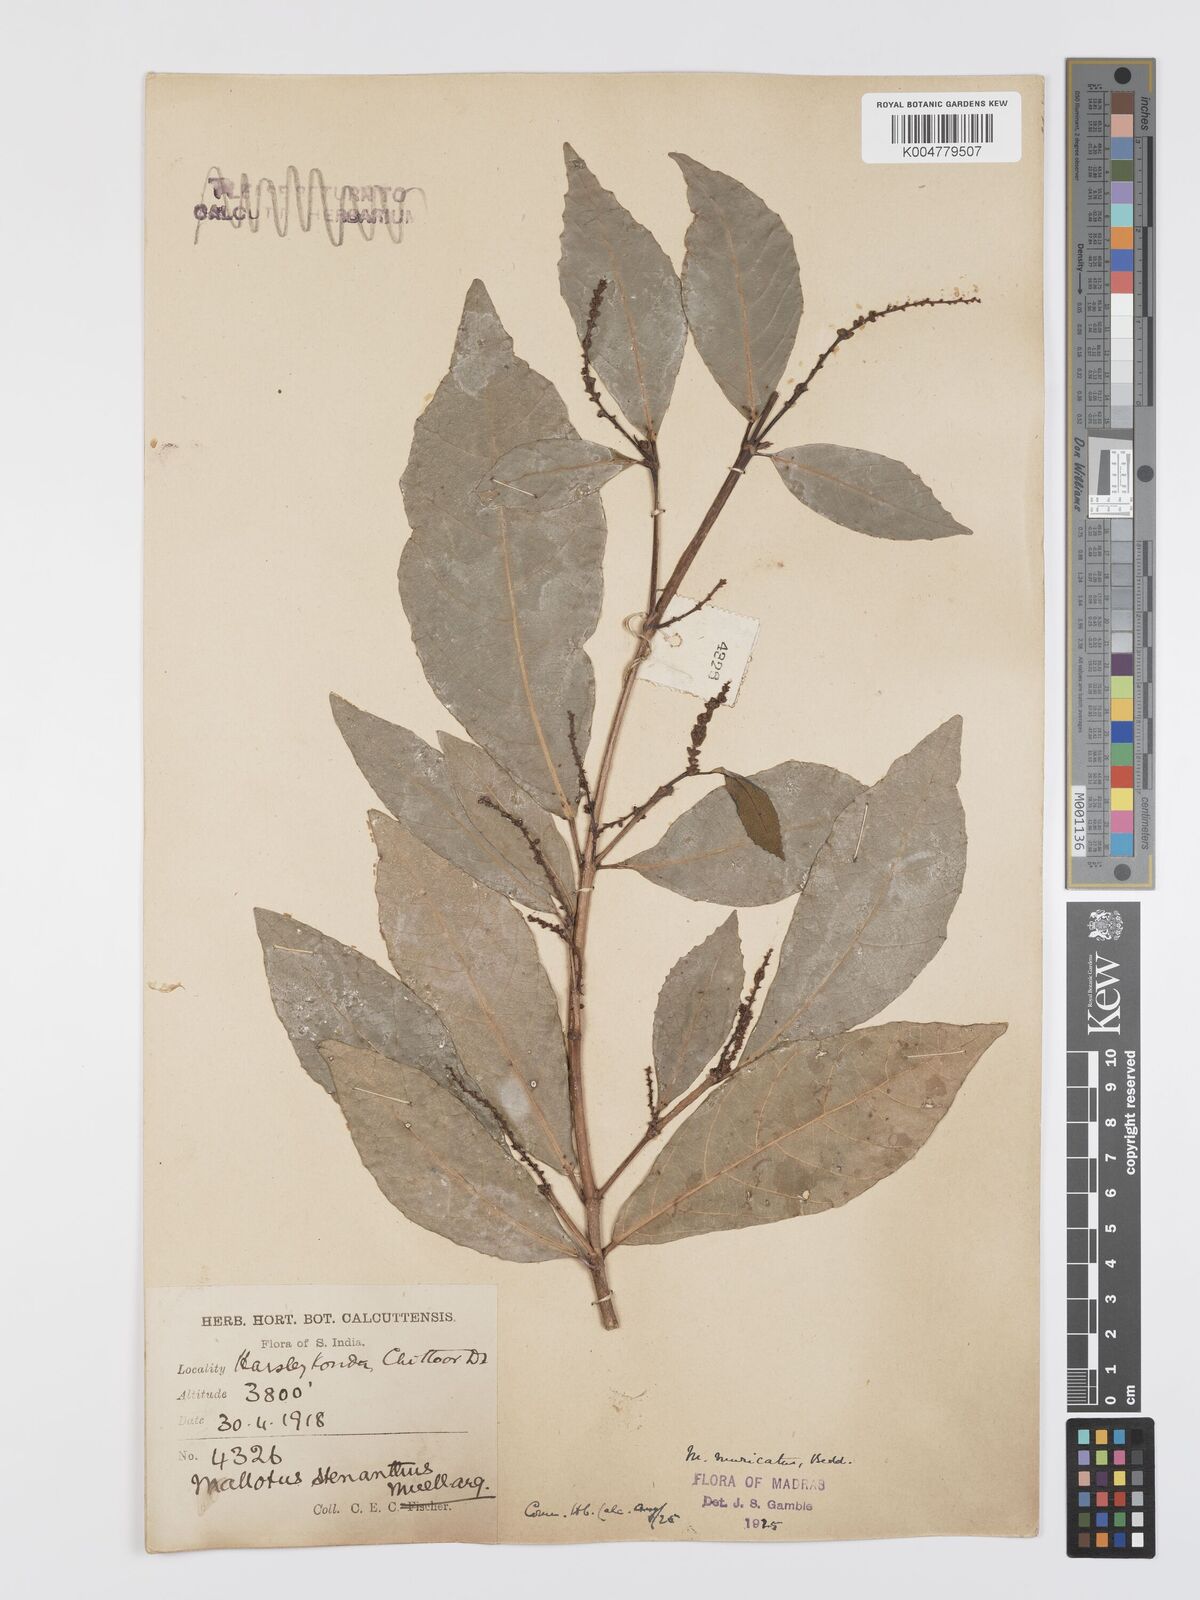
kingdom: Plantae
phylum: Tracheophyta
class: Magnoliopsida
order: Malpighiales
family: Euphorbiaceae
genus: Mallotus
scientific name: Mallotus resinosus
